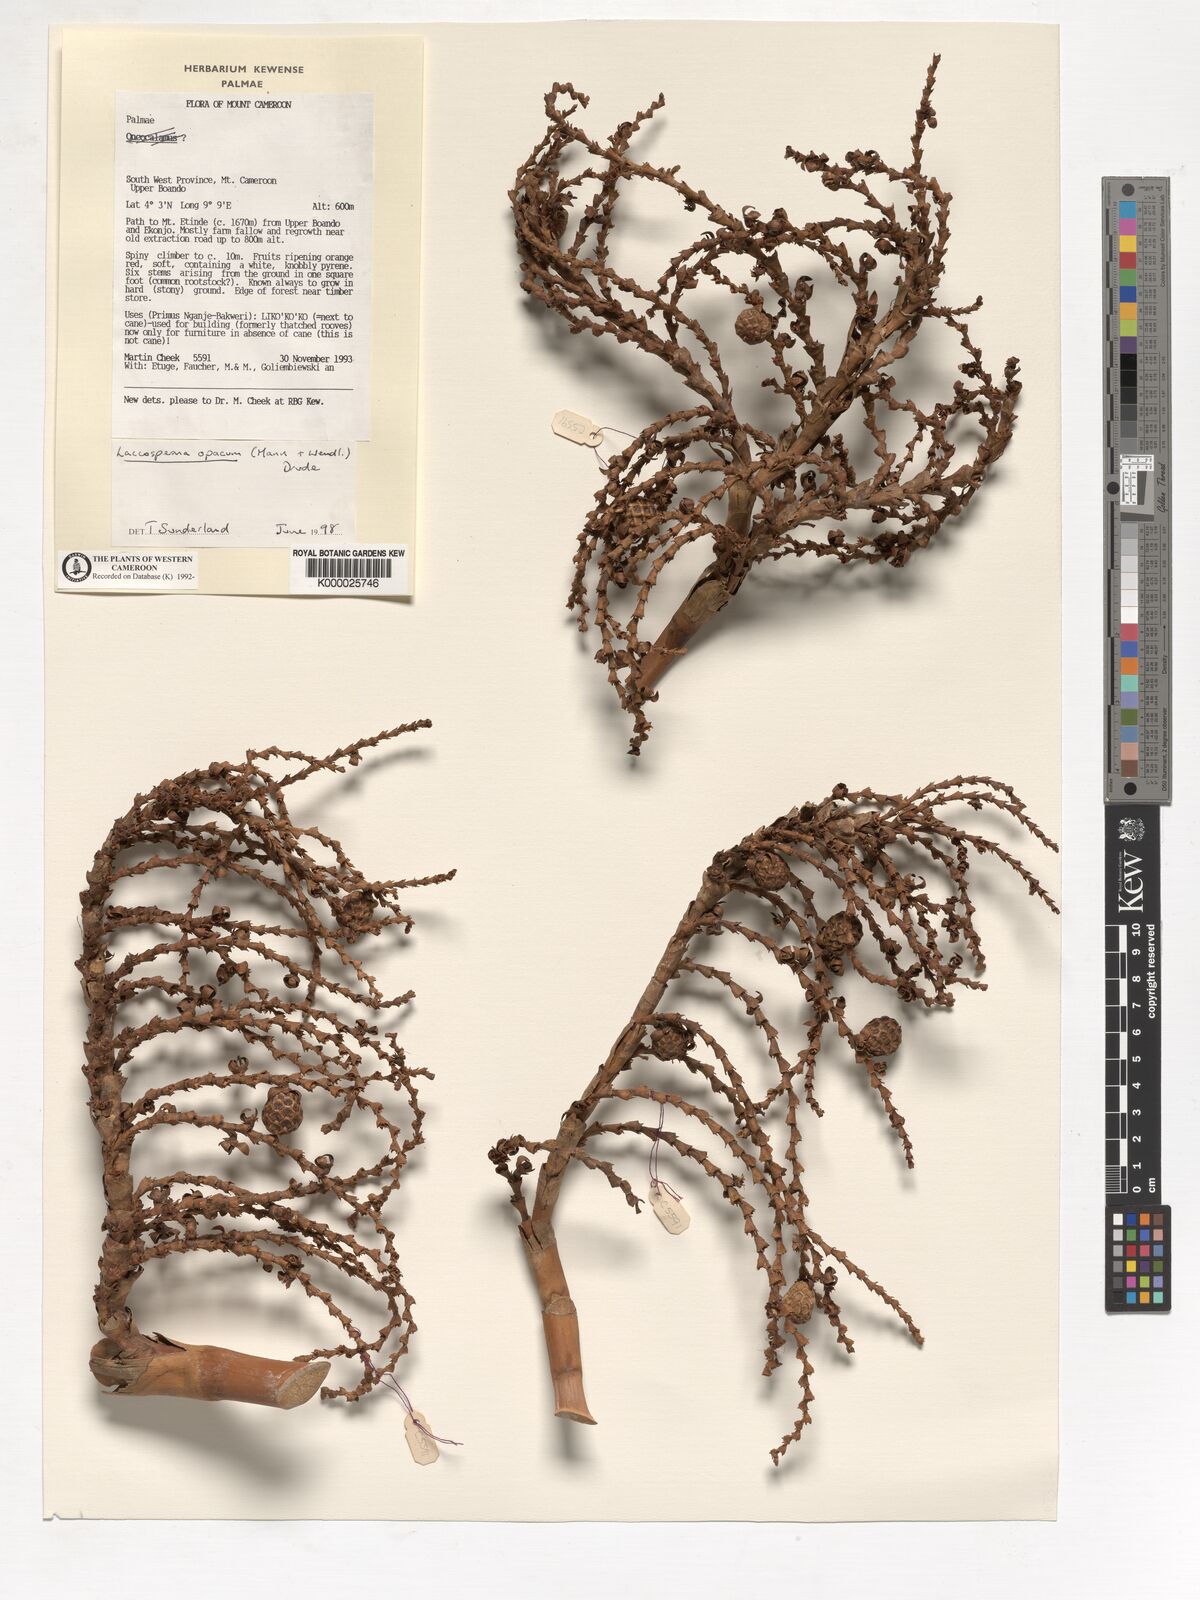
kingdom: Plantae
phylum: Tracheophyta
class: Liliopsida
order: Arecales
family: Arecaceae
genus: Laccosperma
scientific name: Laccosperma opacum
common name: Rattan
